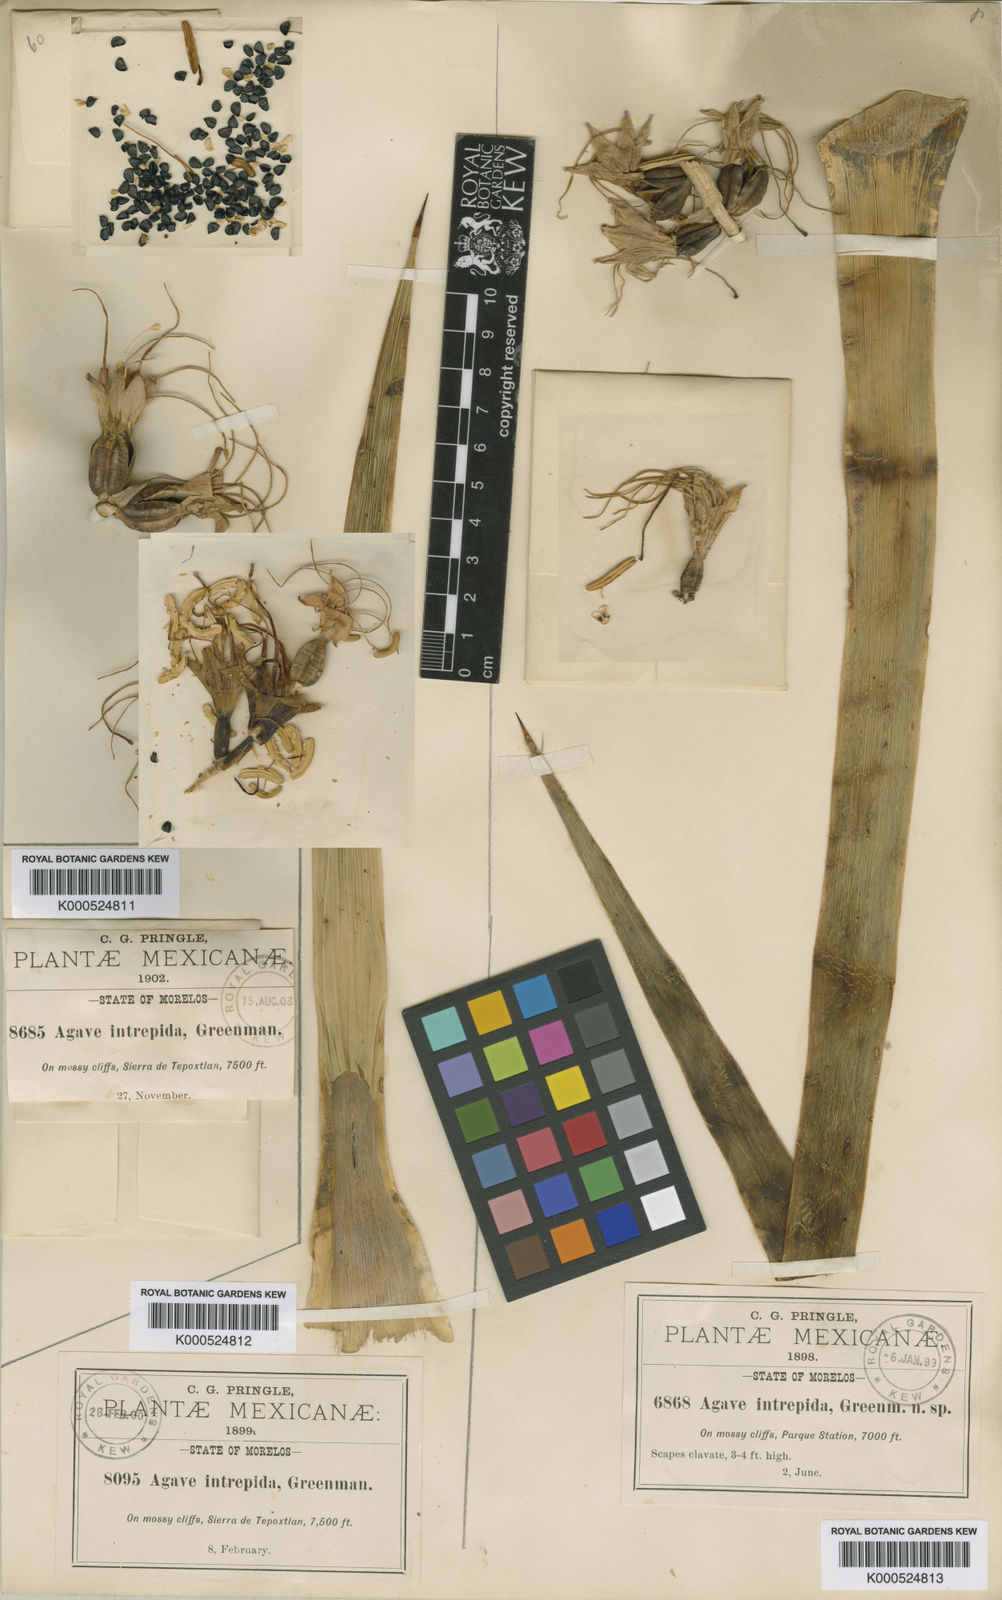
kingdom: Plantae
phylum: Tracheophyta
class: Liliopsida
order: Asparagales
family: Asparagaceae
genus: Agave
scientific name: Agave dealbata
